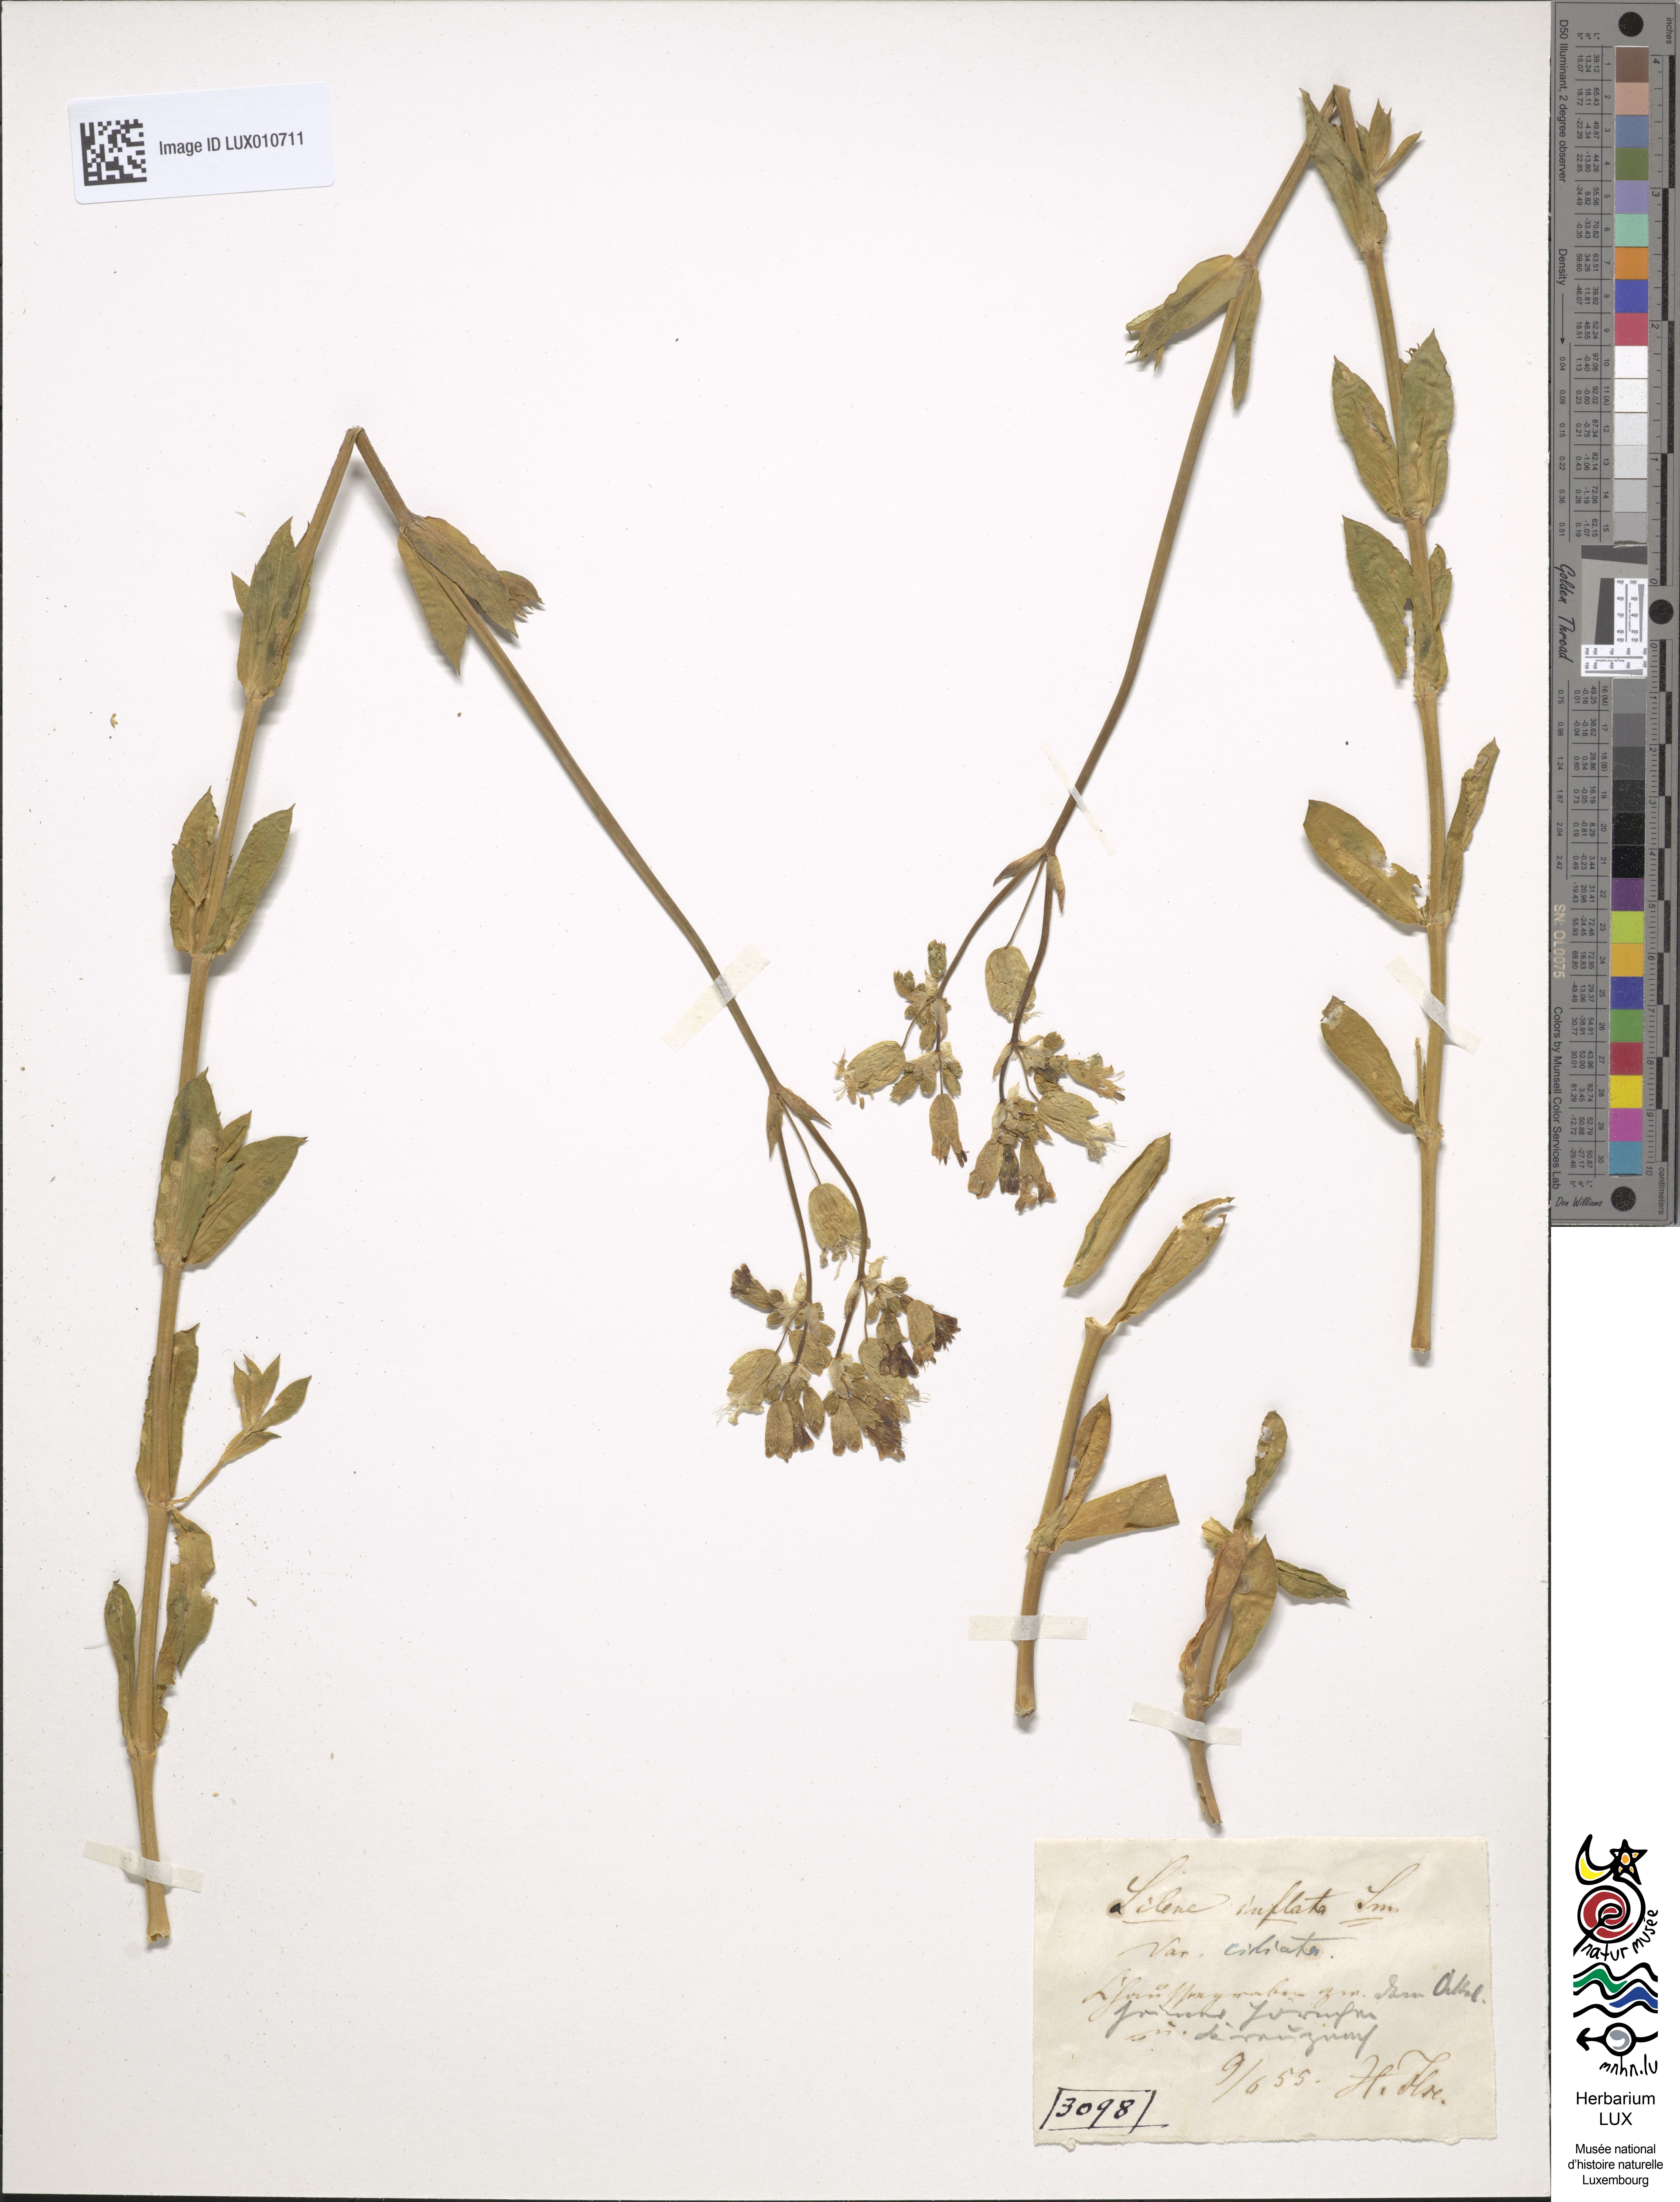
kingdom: Plantae
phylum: Tracheophyta
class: Magnoliopsida
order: Caryophyllales
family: Caryophyllaceae
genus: Silene
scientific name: Silene vulgaris
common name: Bladder campion
